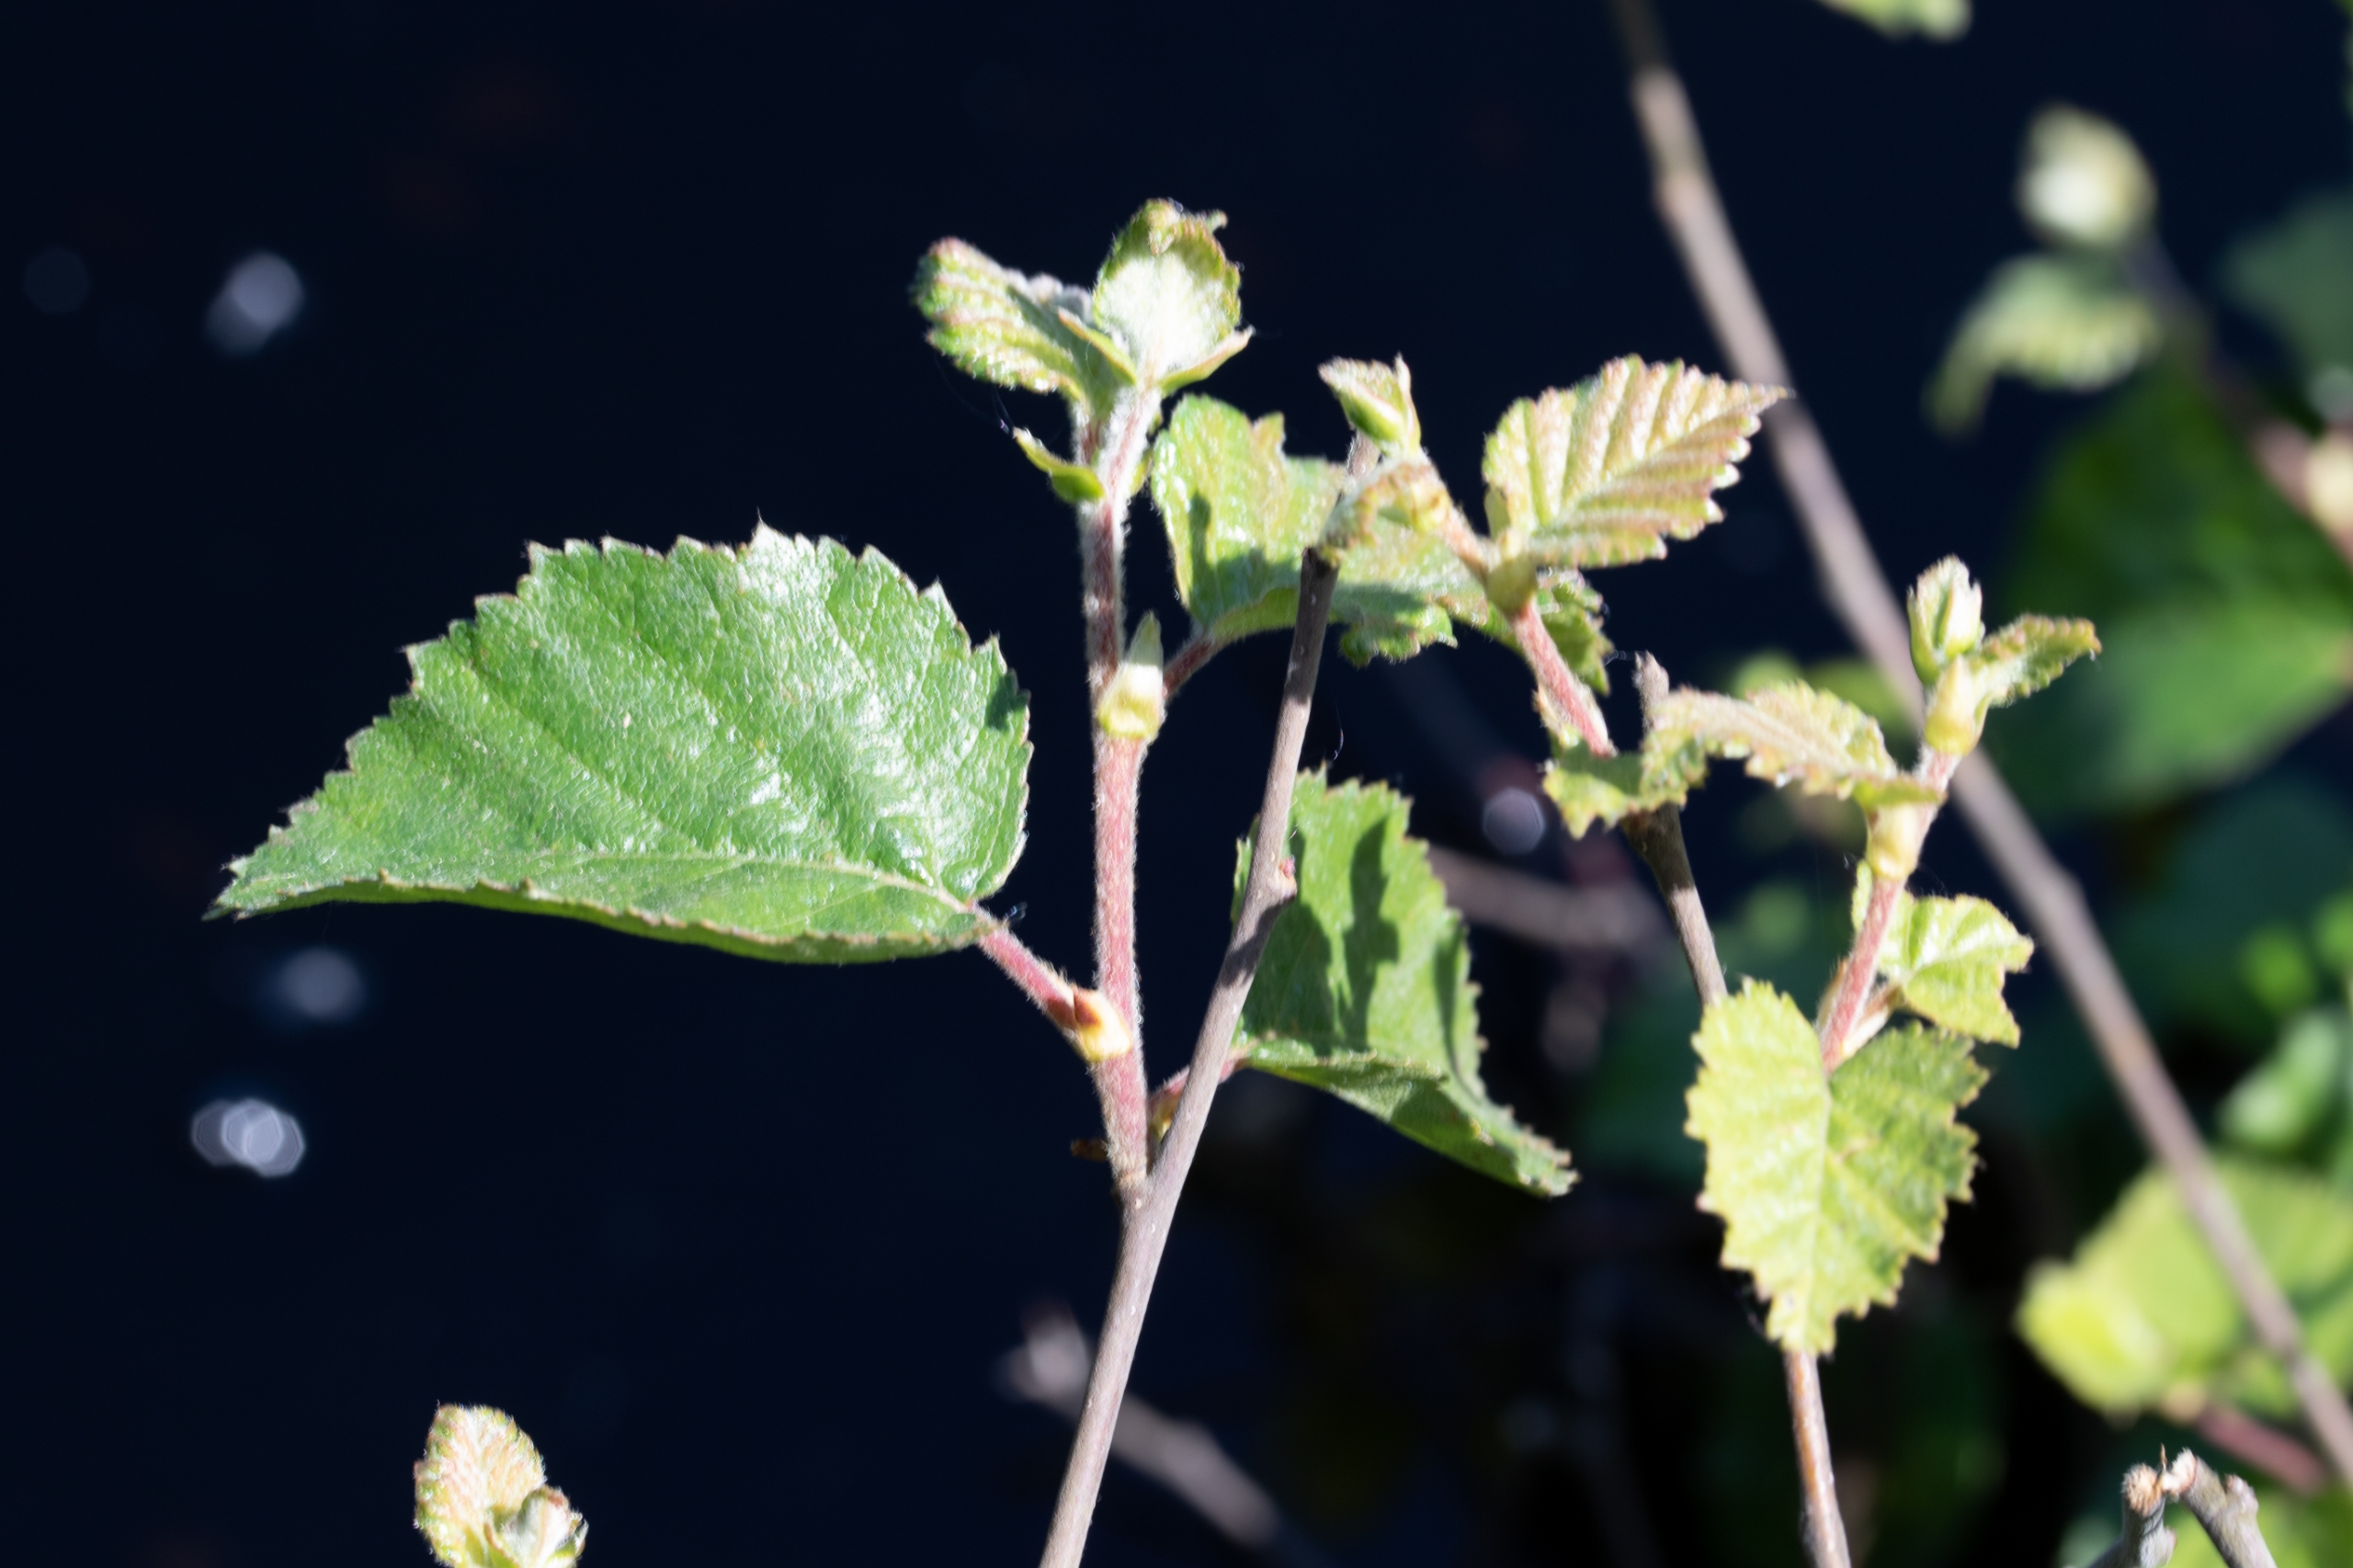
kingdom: Plantae
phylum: Tracheophyta
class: Magnoliopsida
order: Fagales
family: Betulaceae
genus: Betula
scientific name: Betula pubescens
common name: Dun-birk
